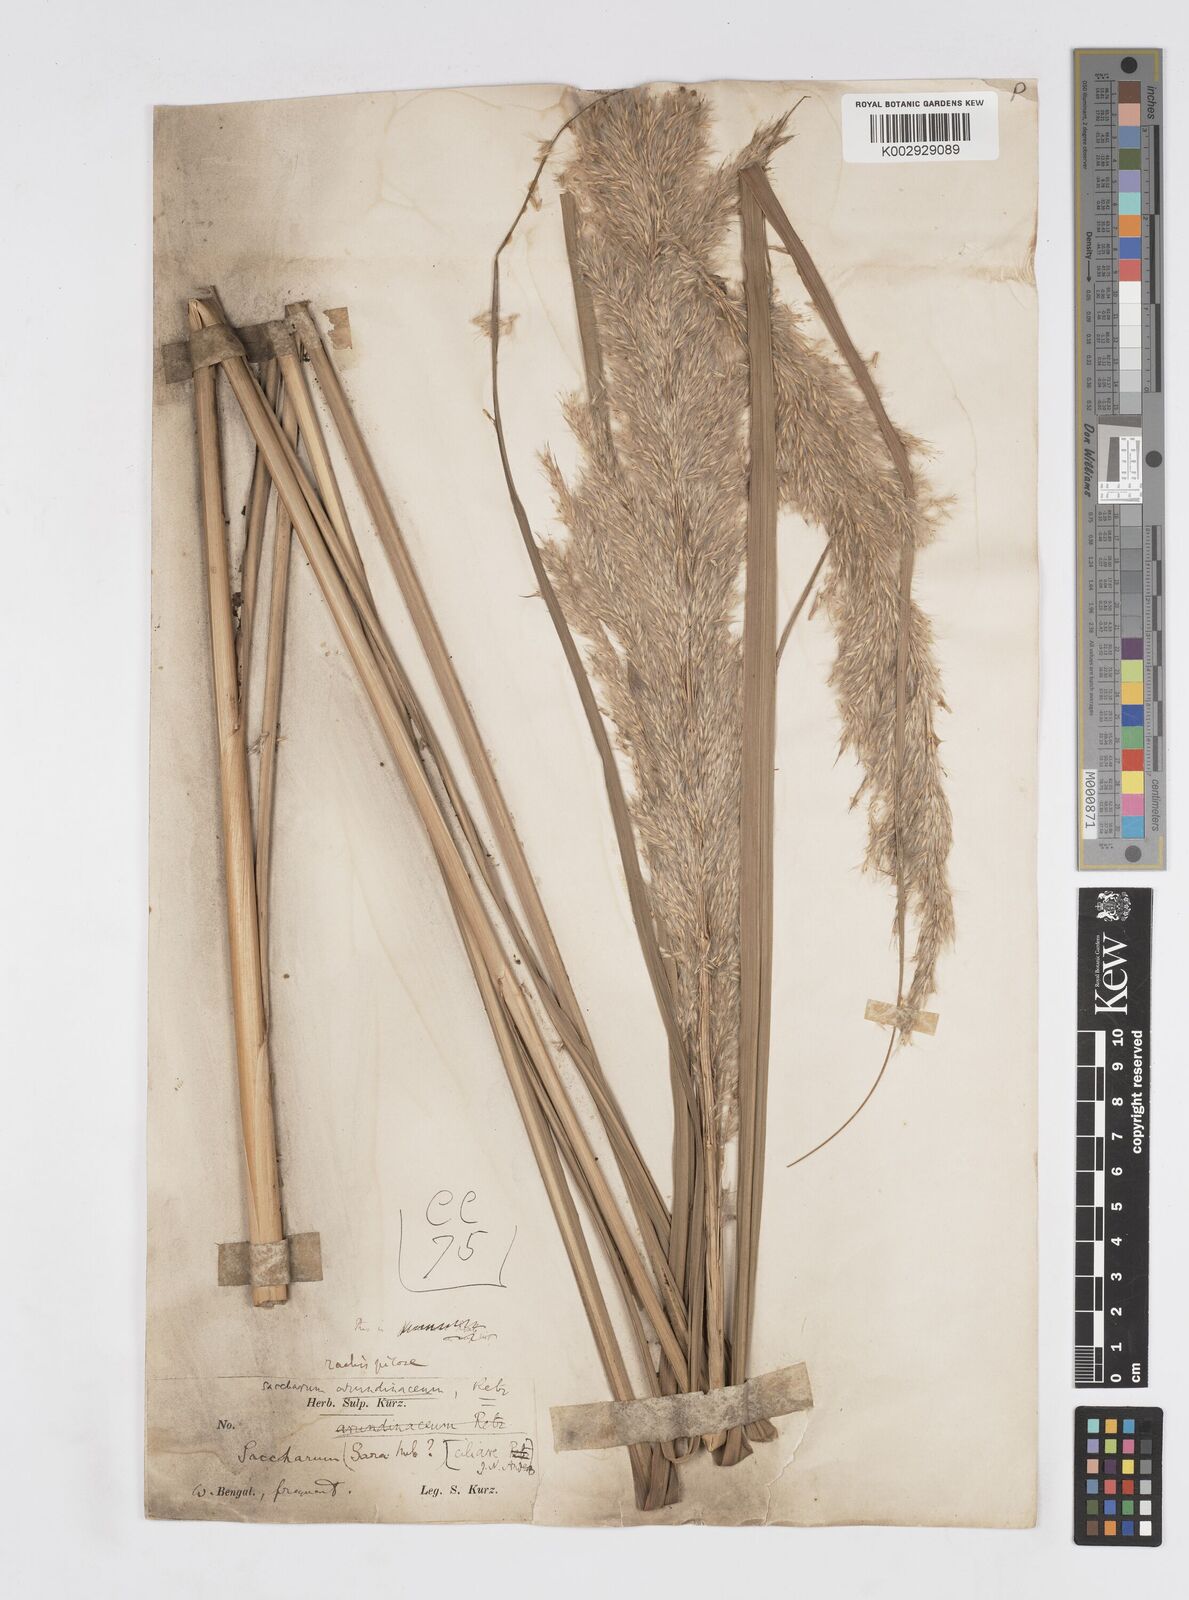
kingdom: Plantae
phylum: Tracheophyta
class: Liliopsida
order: Poales
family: Poaceae
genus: Tripidium
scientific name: Tripidium bengalense
